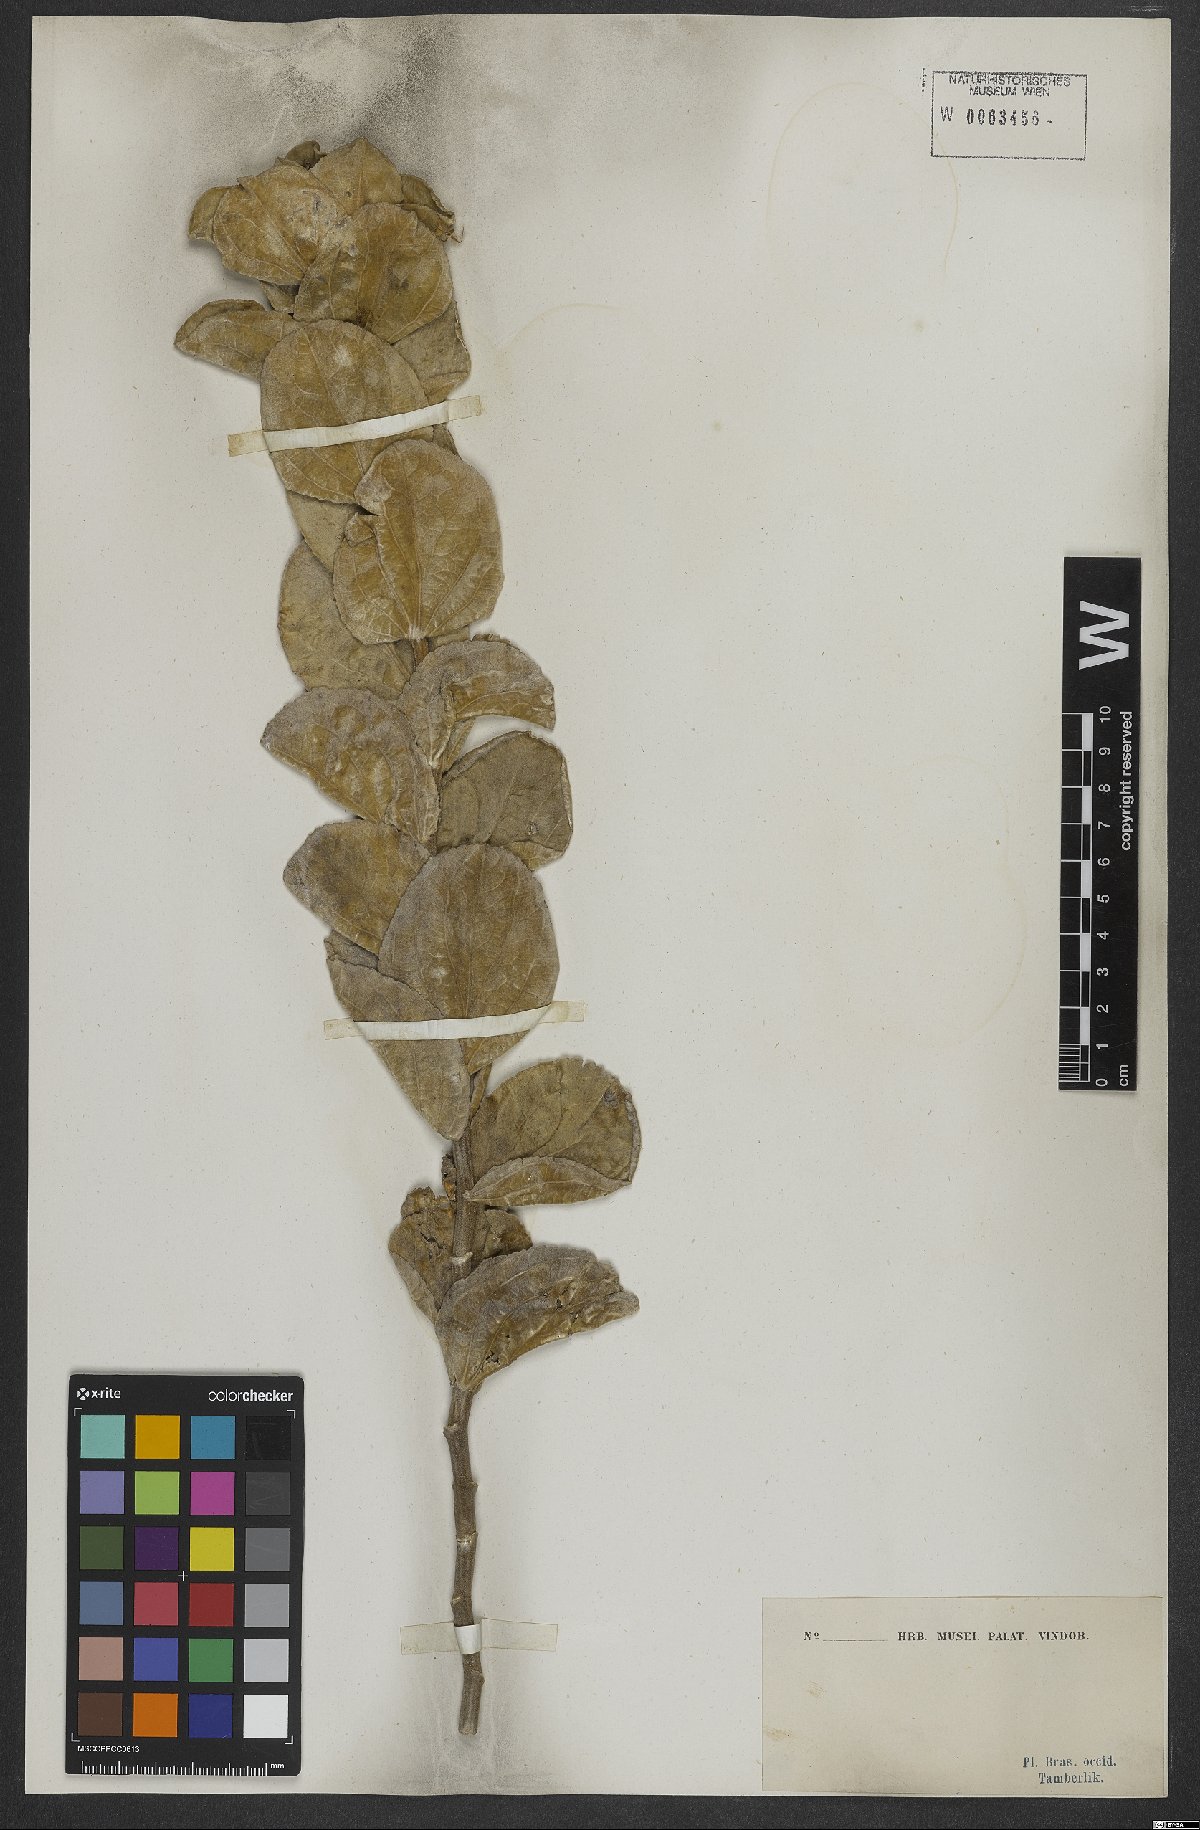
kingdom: Plantae
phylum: Tracheophyta
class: Magnoliopsida
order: Asterales
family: Asteraceae
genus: Proteopsis
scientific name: Proteopsis argentea
